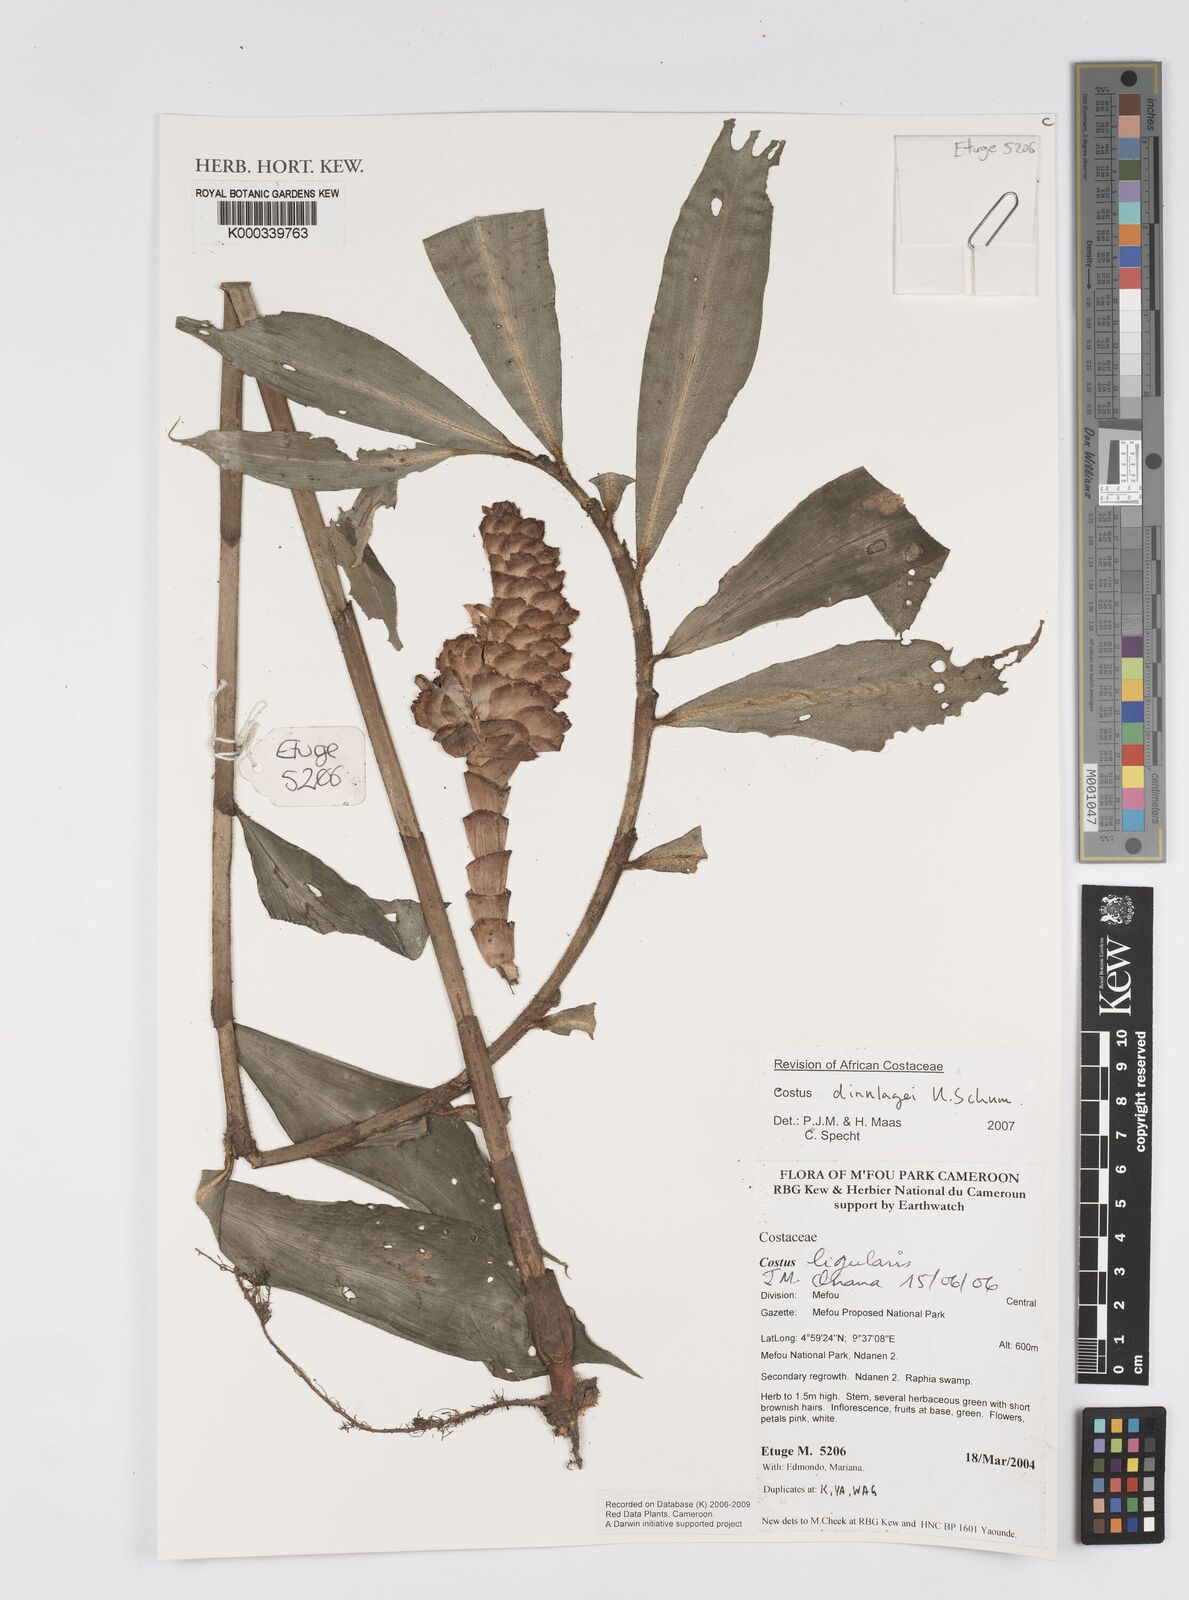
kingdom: Plantae
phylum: Tracheophyta
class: Liliopsida
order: Zingiberales
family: Costaceae
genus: Costus
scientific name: Costus dinklagei
